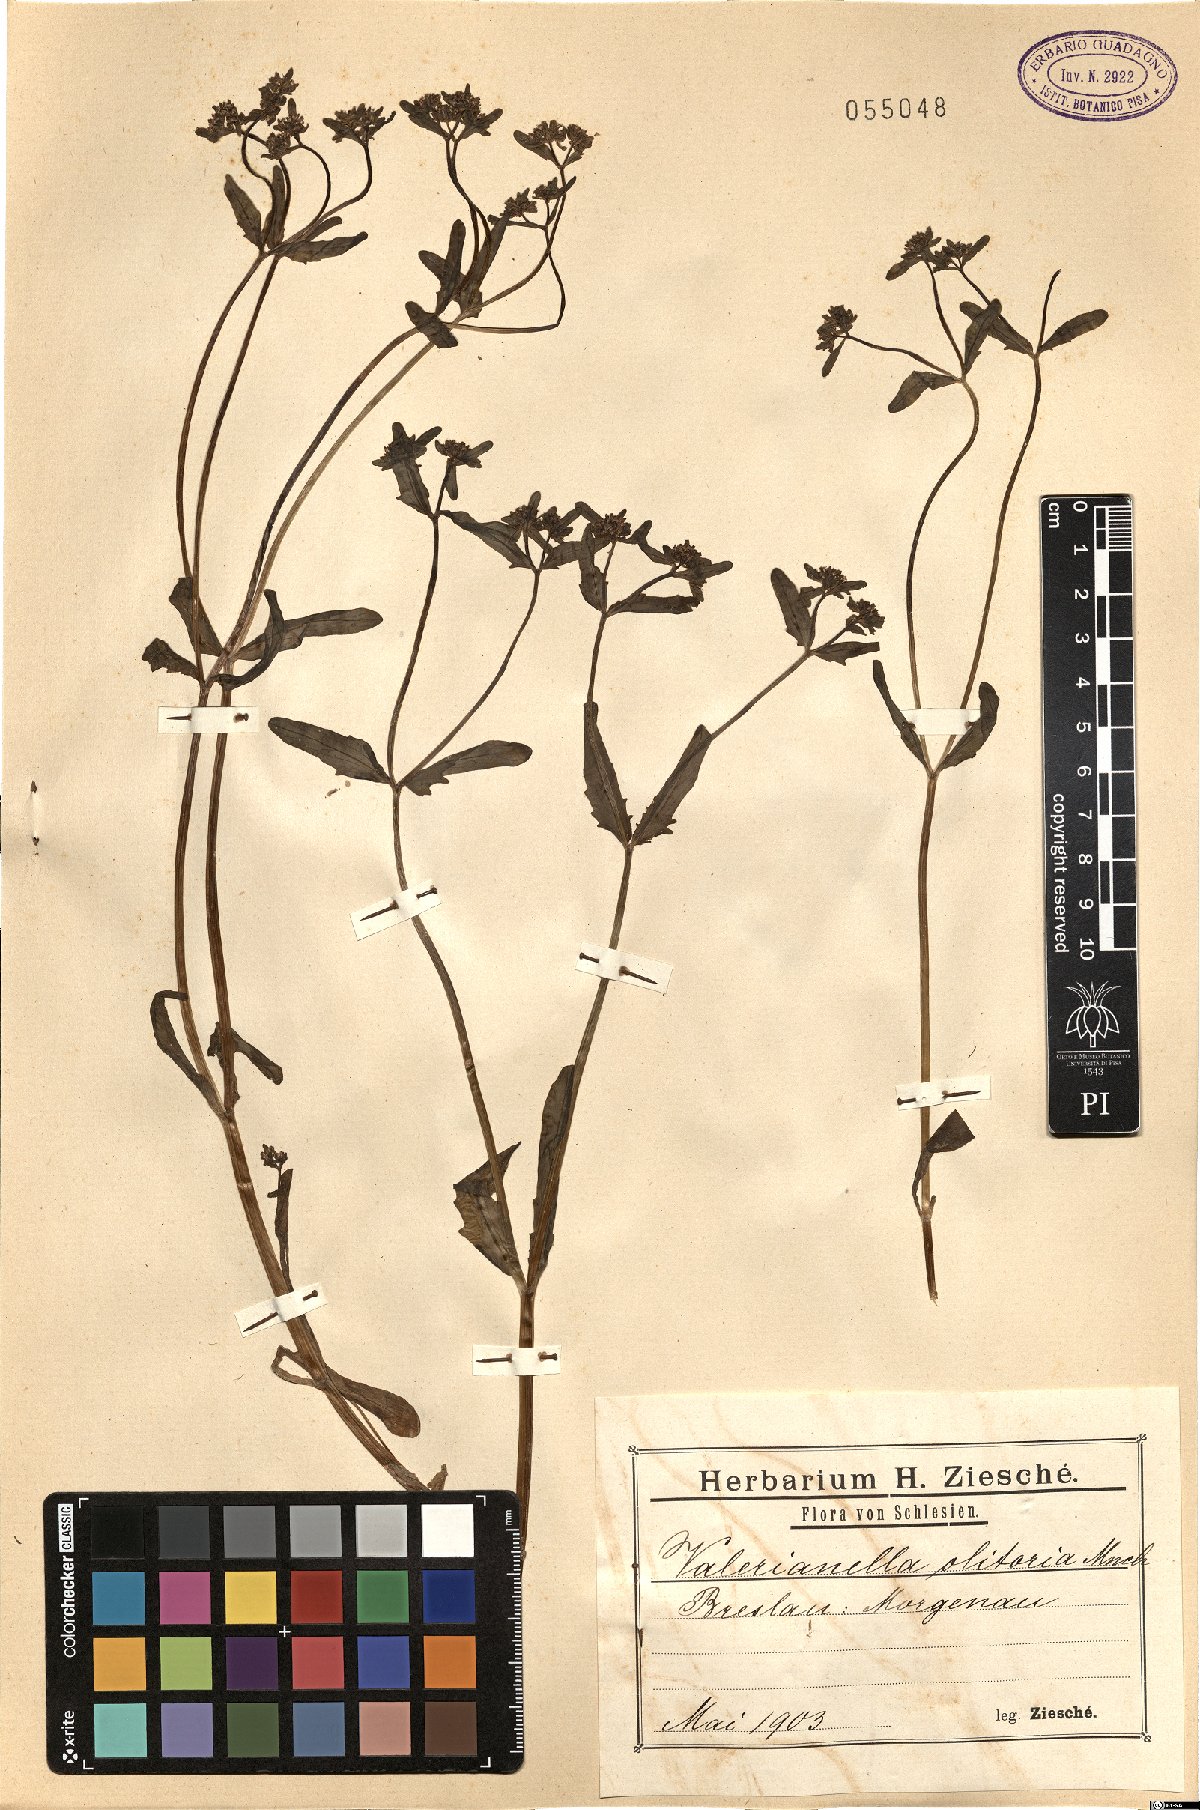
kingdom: Plantae
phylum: Tracheophyta
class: Magnoliopsida
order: Dipsacales
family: Caprifoliaceae
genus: Valerianella
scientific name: Valerianella locusta
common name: Common cornsalad
